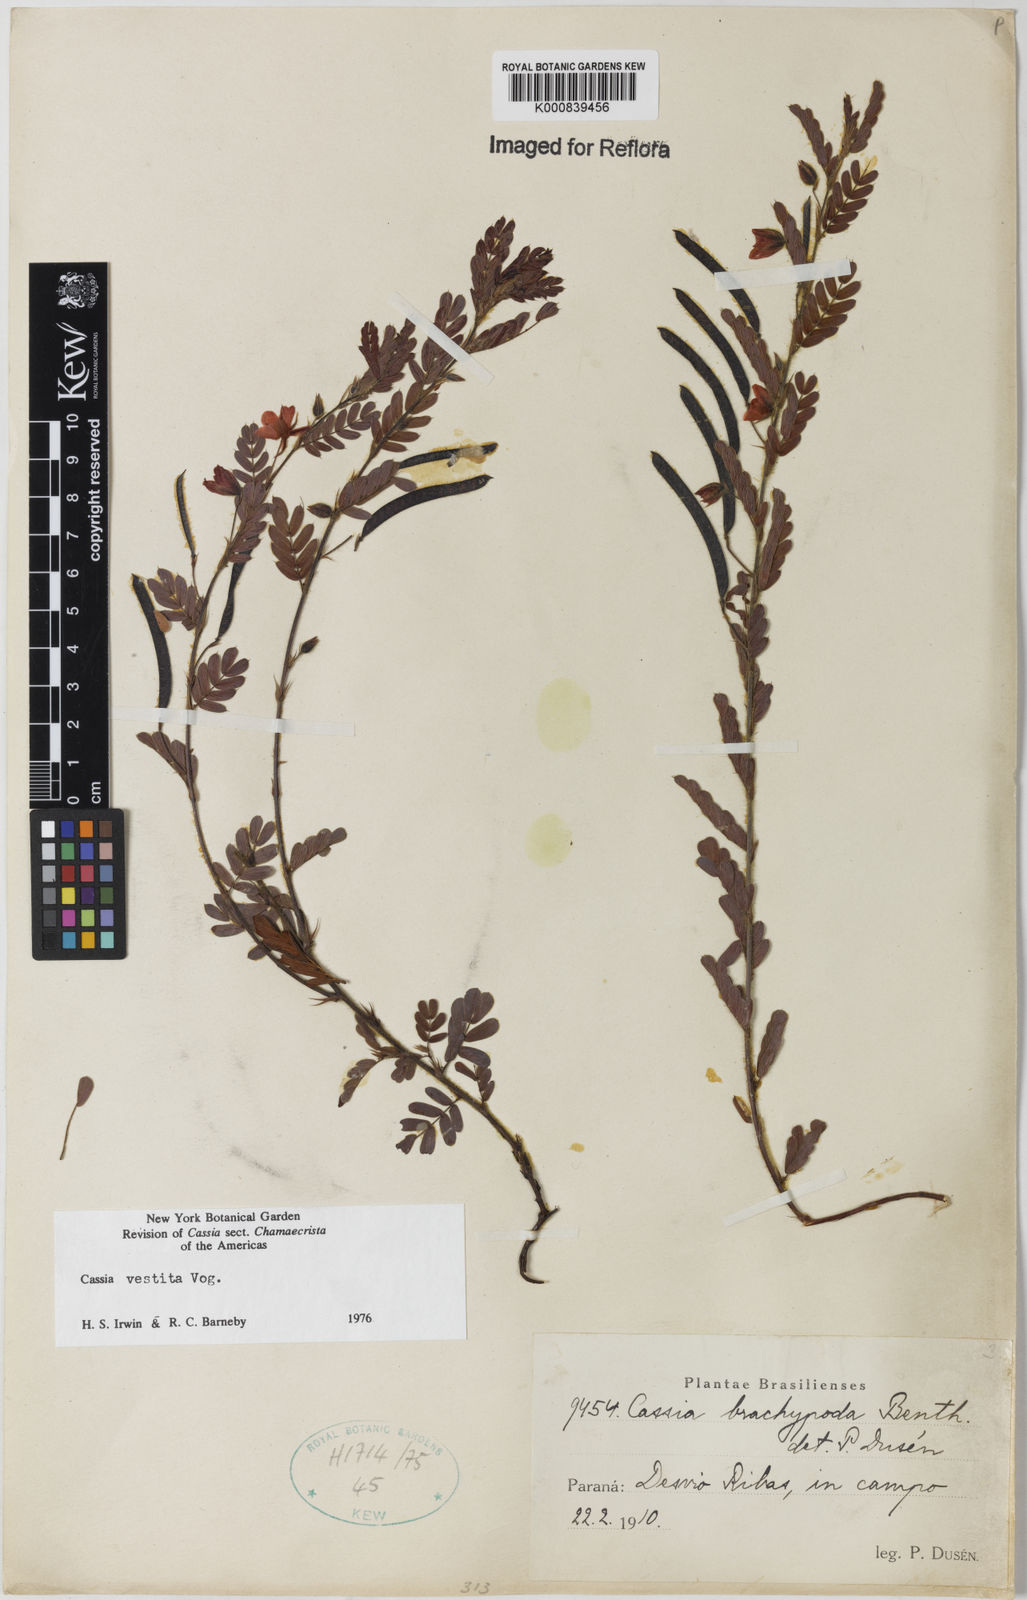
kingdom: Plantae
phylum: Tracheophyta
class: Magnoliopsida
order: Fabales
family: Fabaceae
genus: Chamaecrista
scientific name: Chamaecrista
